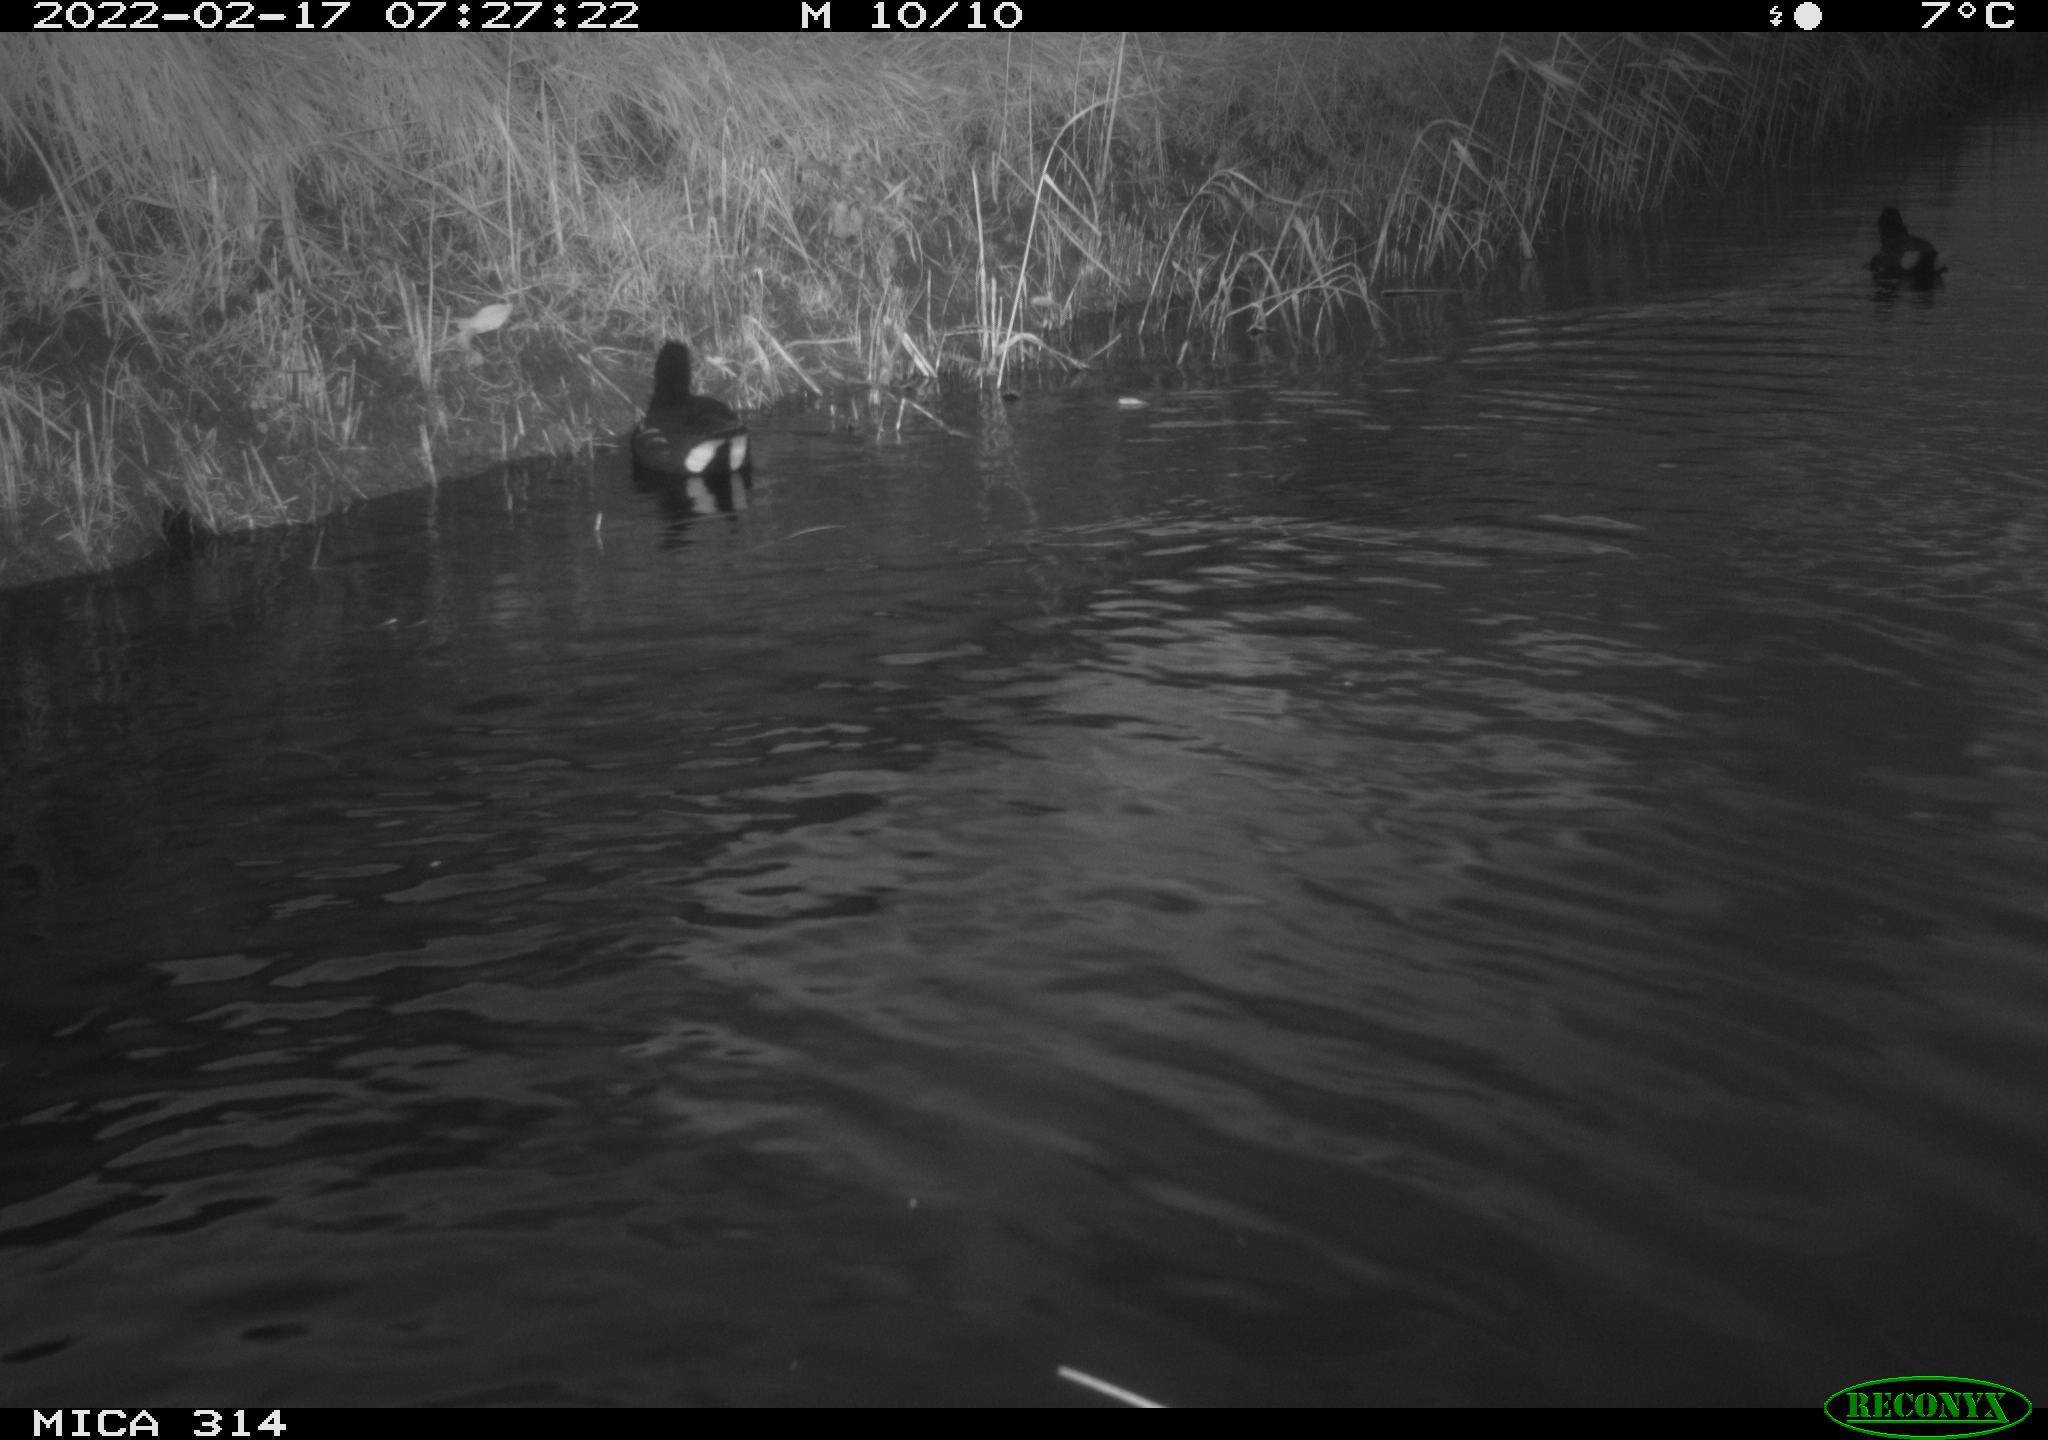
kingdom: Animalia
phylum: Chordata
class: Aves
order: Gruiformes
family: Rallidae
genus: Gallinula
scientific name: Gallinula chloropus
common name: Common moorhen
